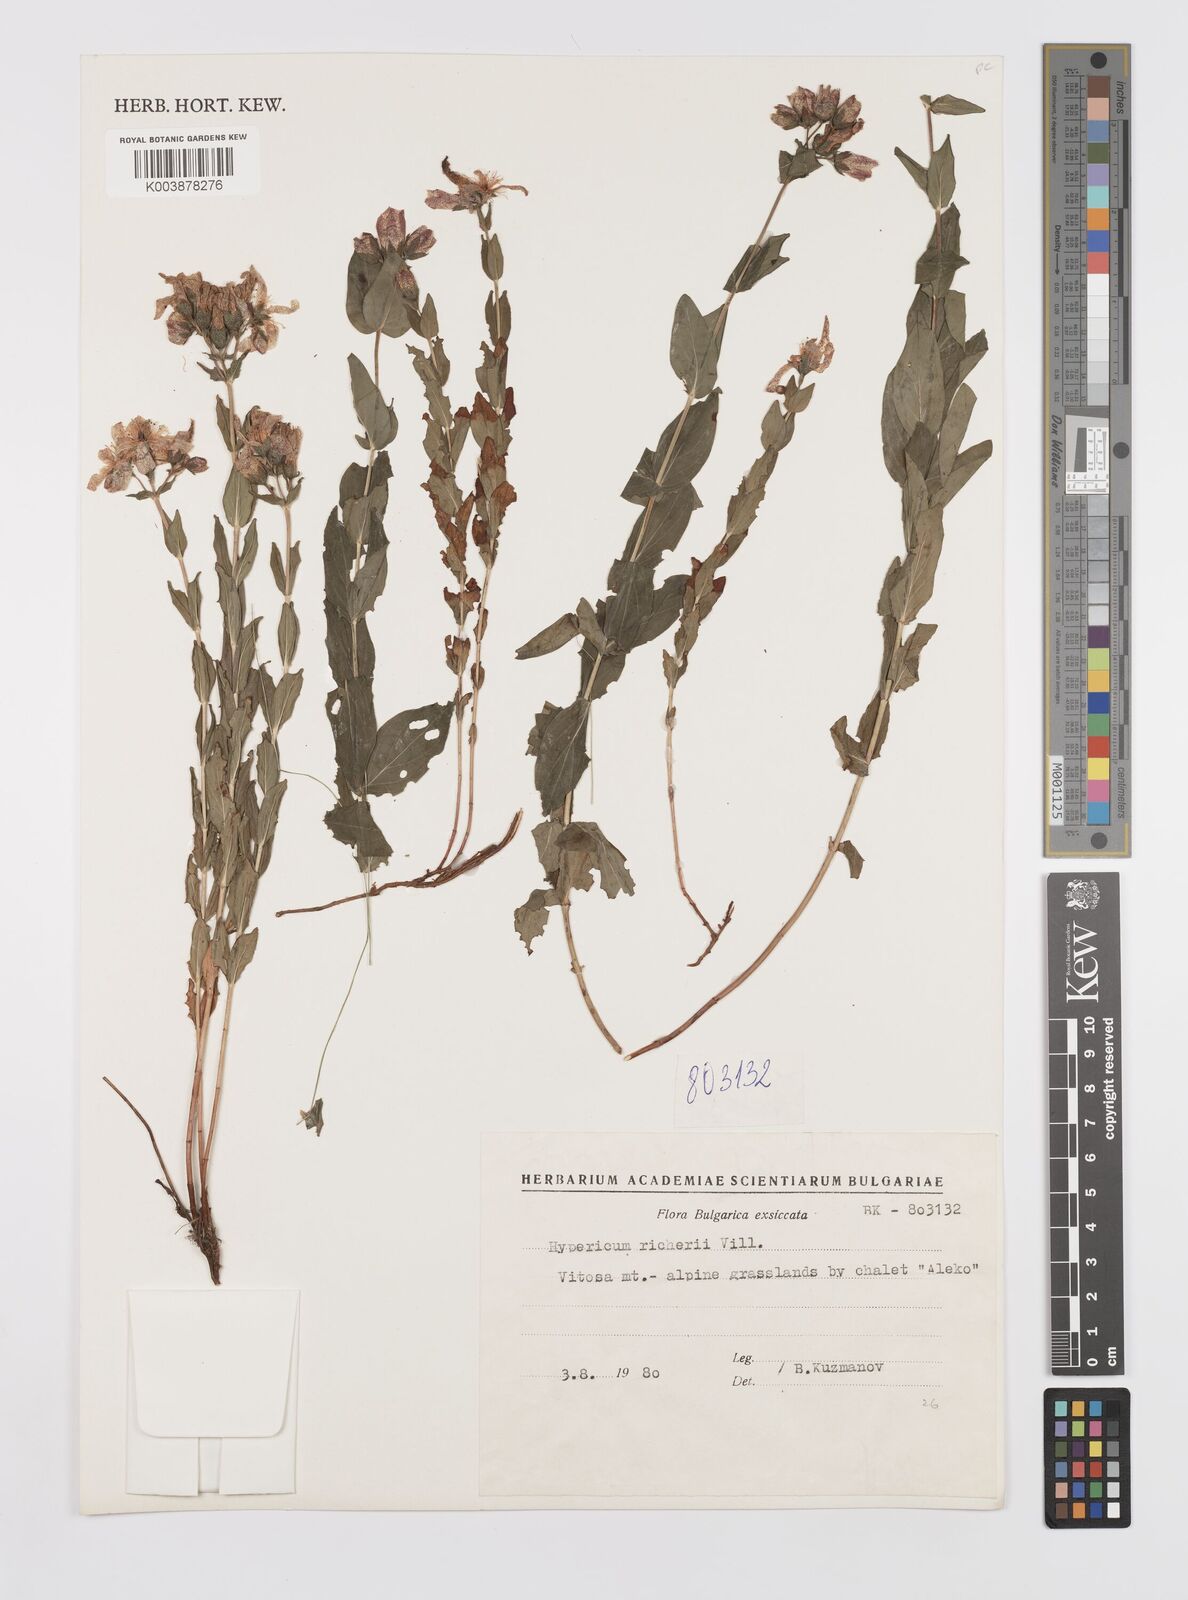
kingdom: Plantae
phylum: Tracheophyta
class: Magnoliopsida
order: Malpighiales
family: Hypericaceae
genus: Hypericum
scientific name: Hypericum richeri
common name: Alpine st john's-wort
